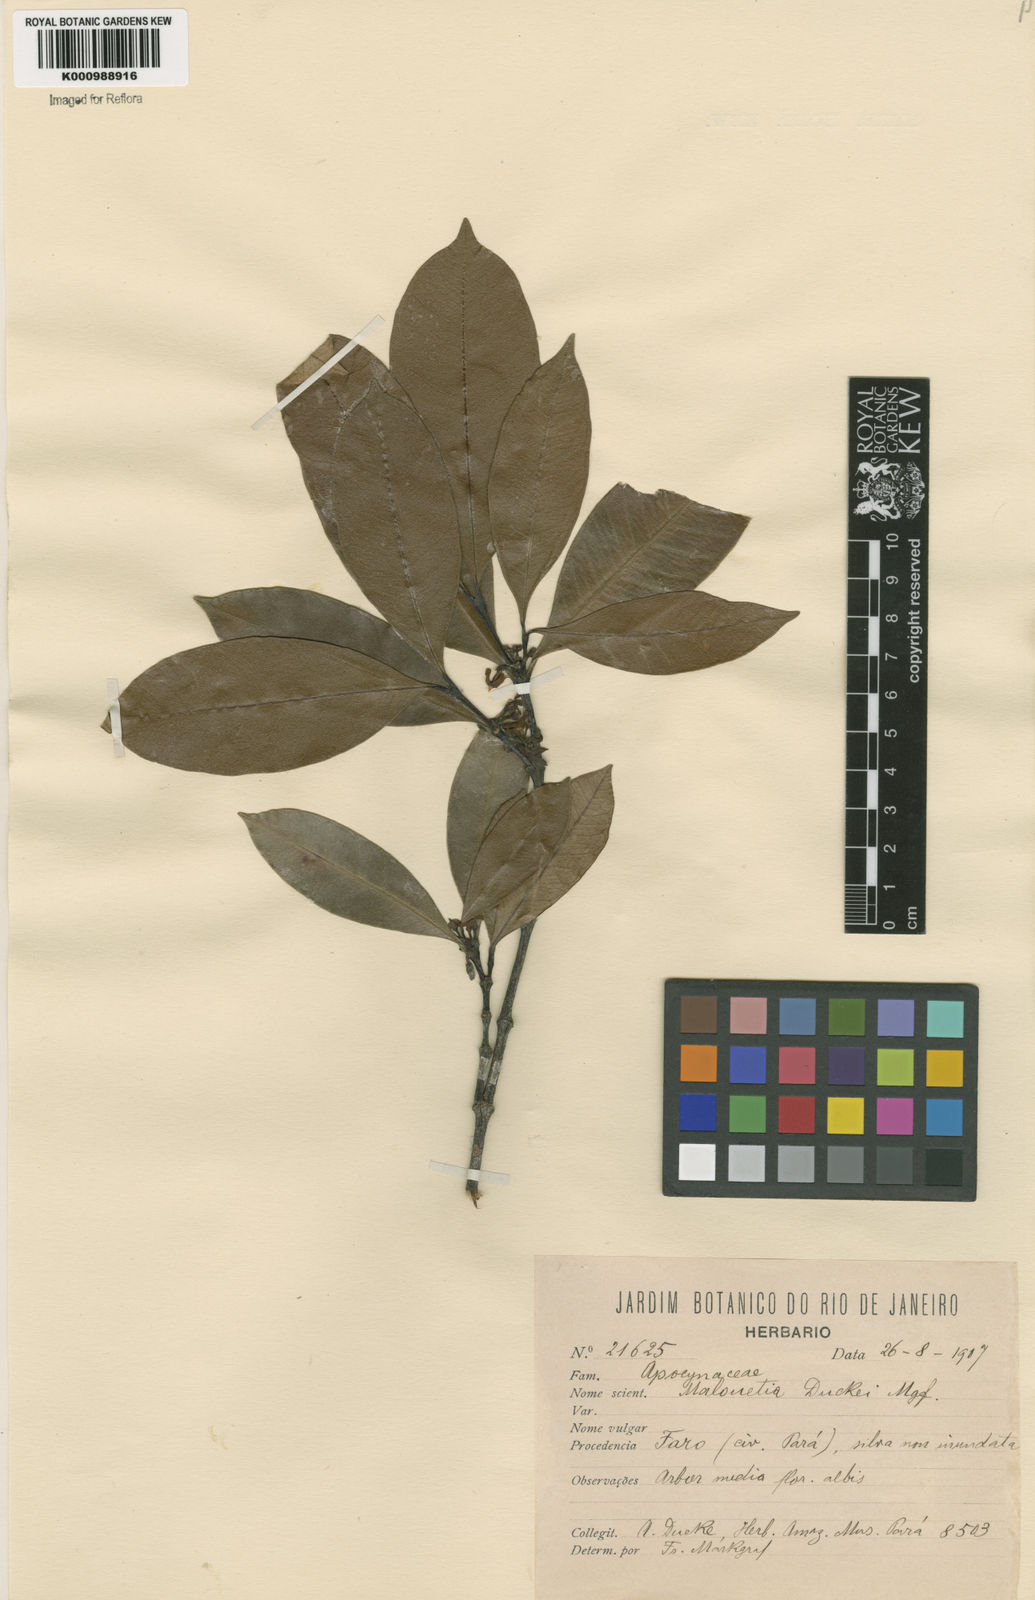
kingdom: Plantae
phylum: Tracheophyta
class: Magnoliopsida
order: Gentianales
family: Apocynaceae
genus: Malouetia
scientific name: Malouetia duckei
